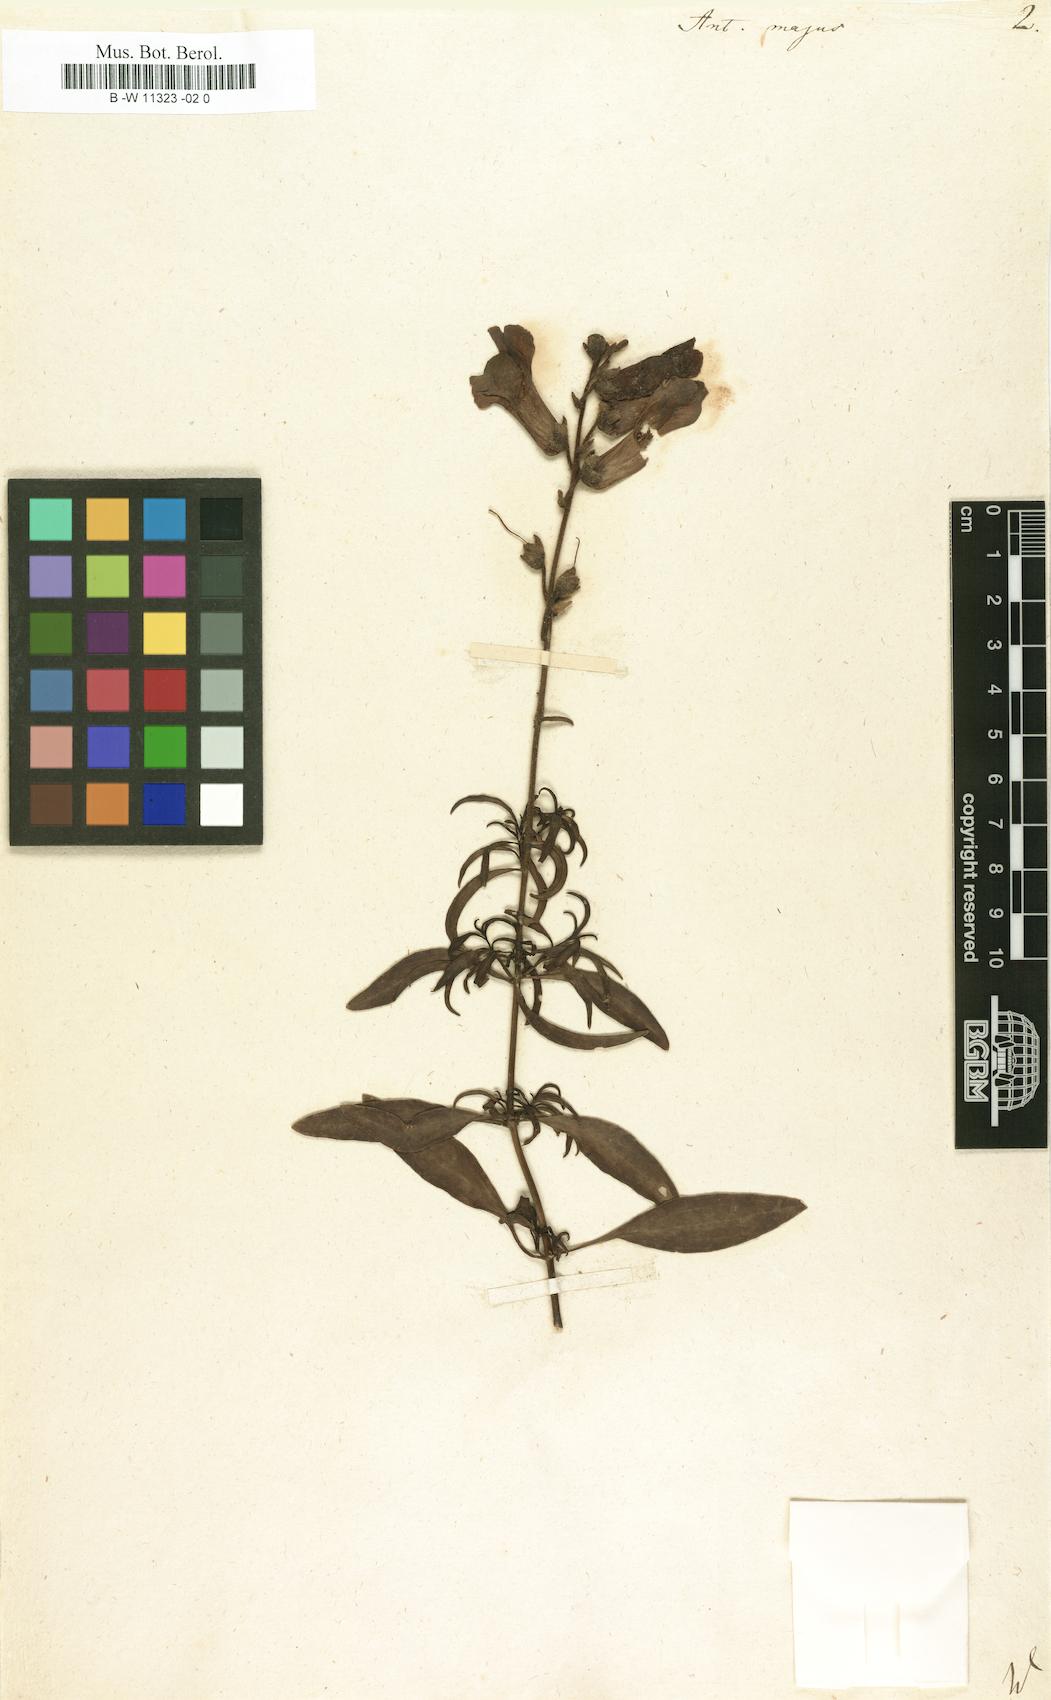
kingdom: Plantae
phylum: Tracheophyta
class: Magnoliopsida
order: Lamiales
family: Plantaginaceae
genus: Antirrhinum
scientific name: Antirrhinum majus
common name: Snapdragon
